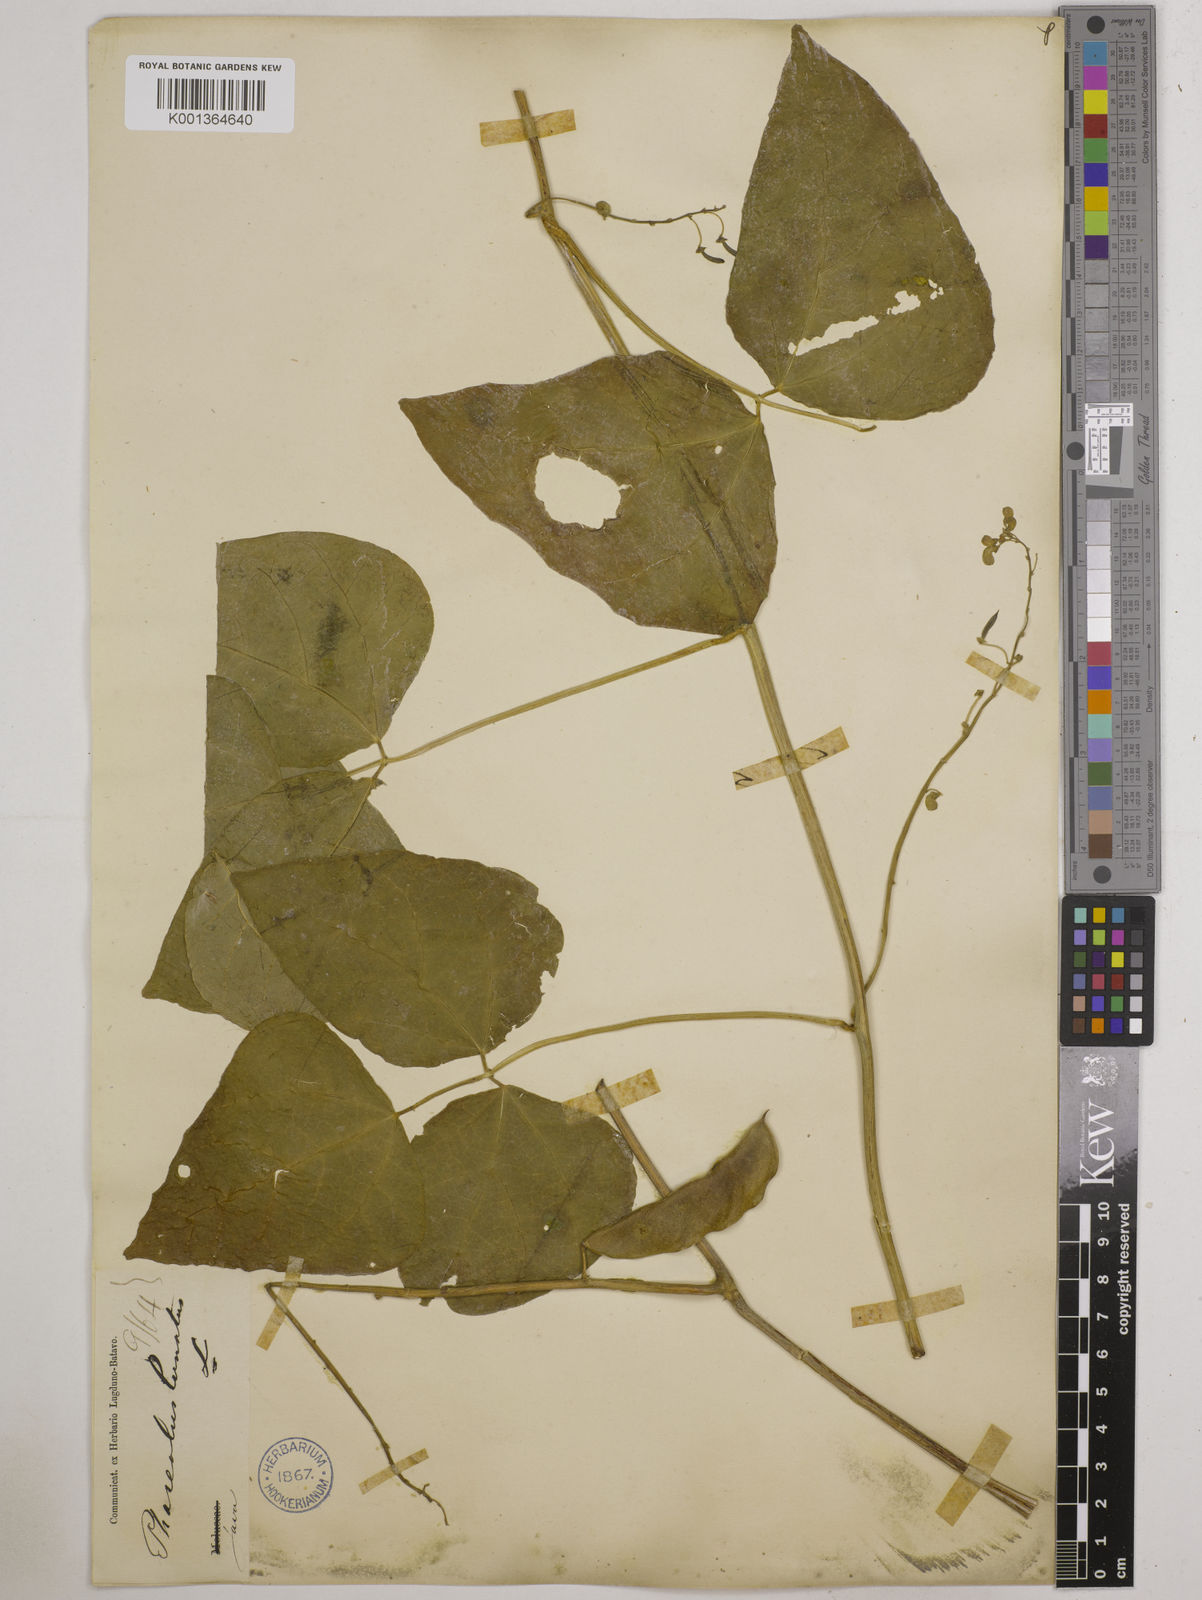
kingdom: Plantae
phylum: Tracheophyta
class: Magnoliopsida
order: Fabales
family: Fabaceae
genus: Phaseolus
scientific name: Phaseolus lunatus
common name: Sieva bean
